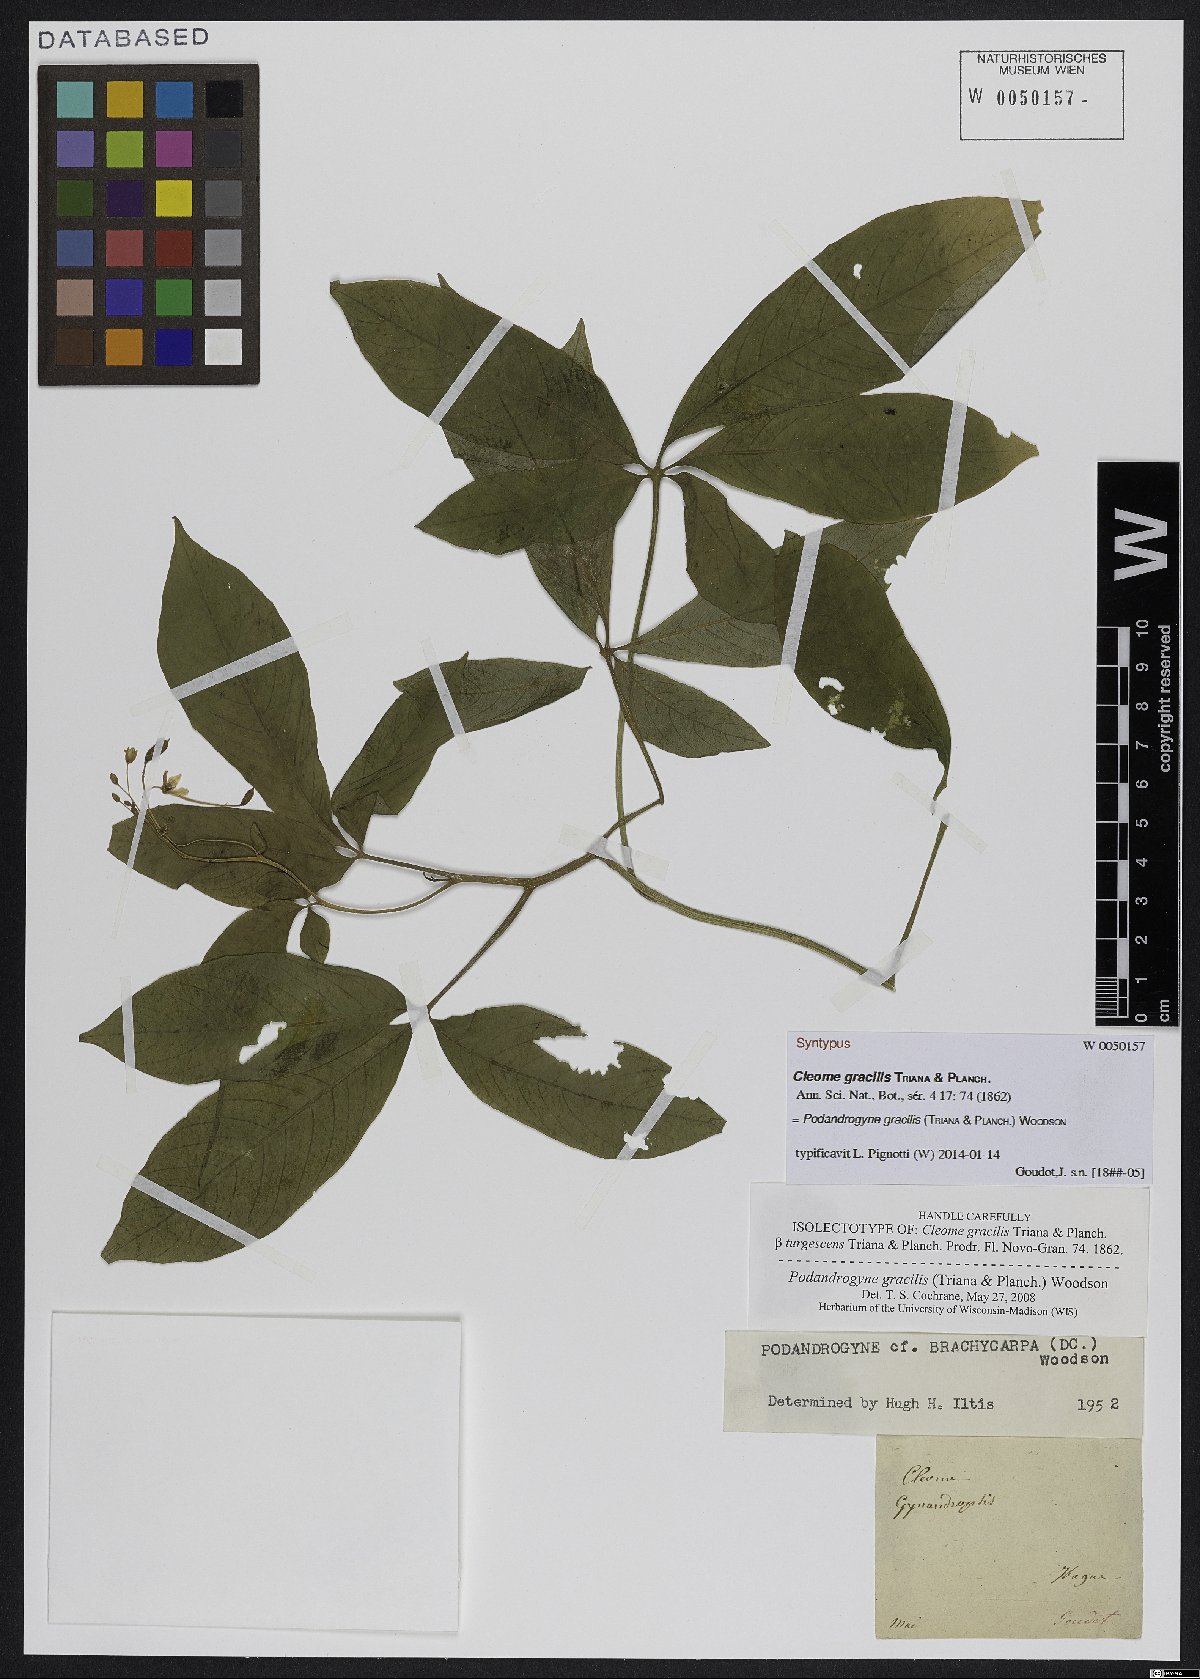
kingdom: Plantae
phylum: Tracheophyta
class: Magnoliopsida
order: Brassicales
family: Cleomaceae
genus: Podandrogyne
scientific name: Podandrogyne gracilis
